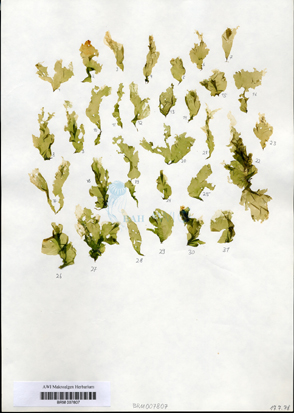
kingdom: Plantae
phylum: Chlorophyta
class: Ulvophyceae
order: Ulvales
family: Ulvaceae
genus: Ulva
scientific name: Ulva tenera
